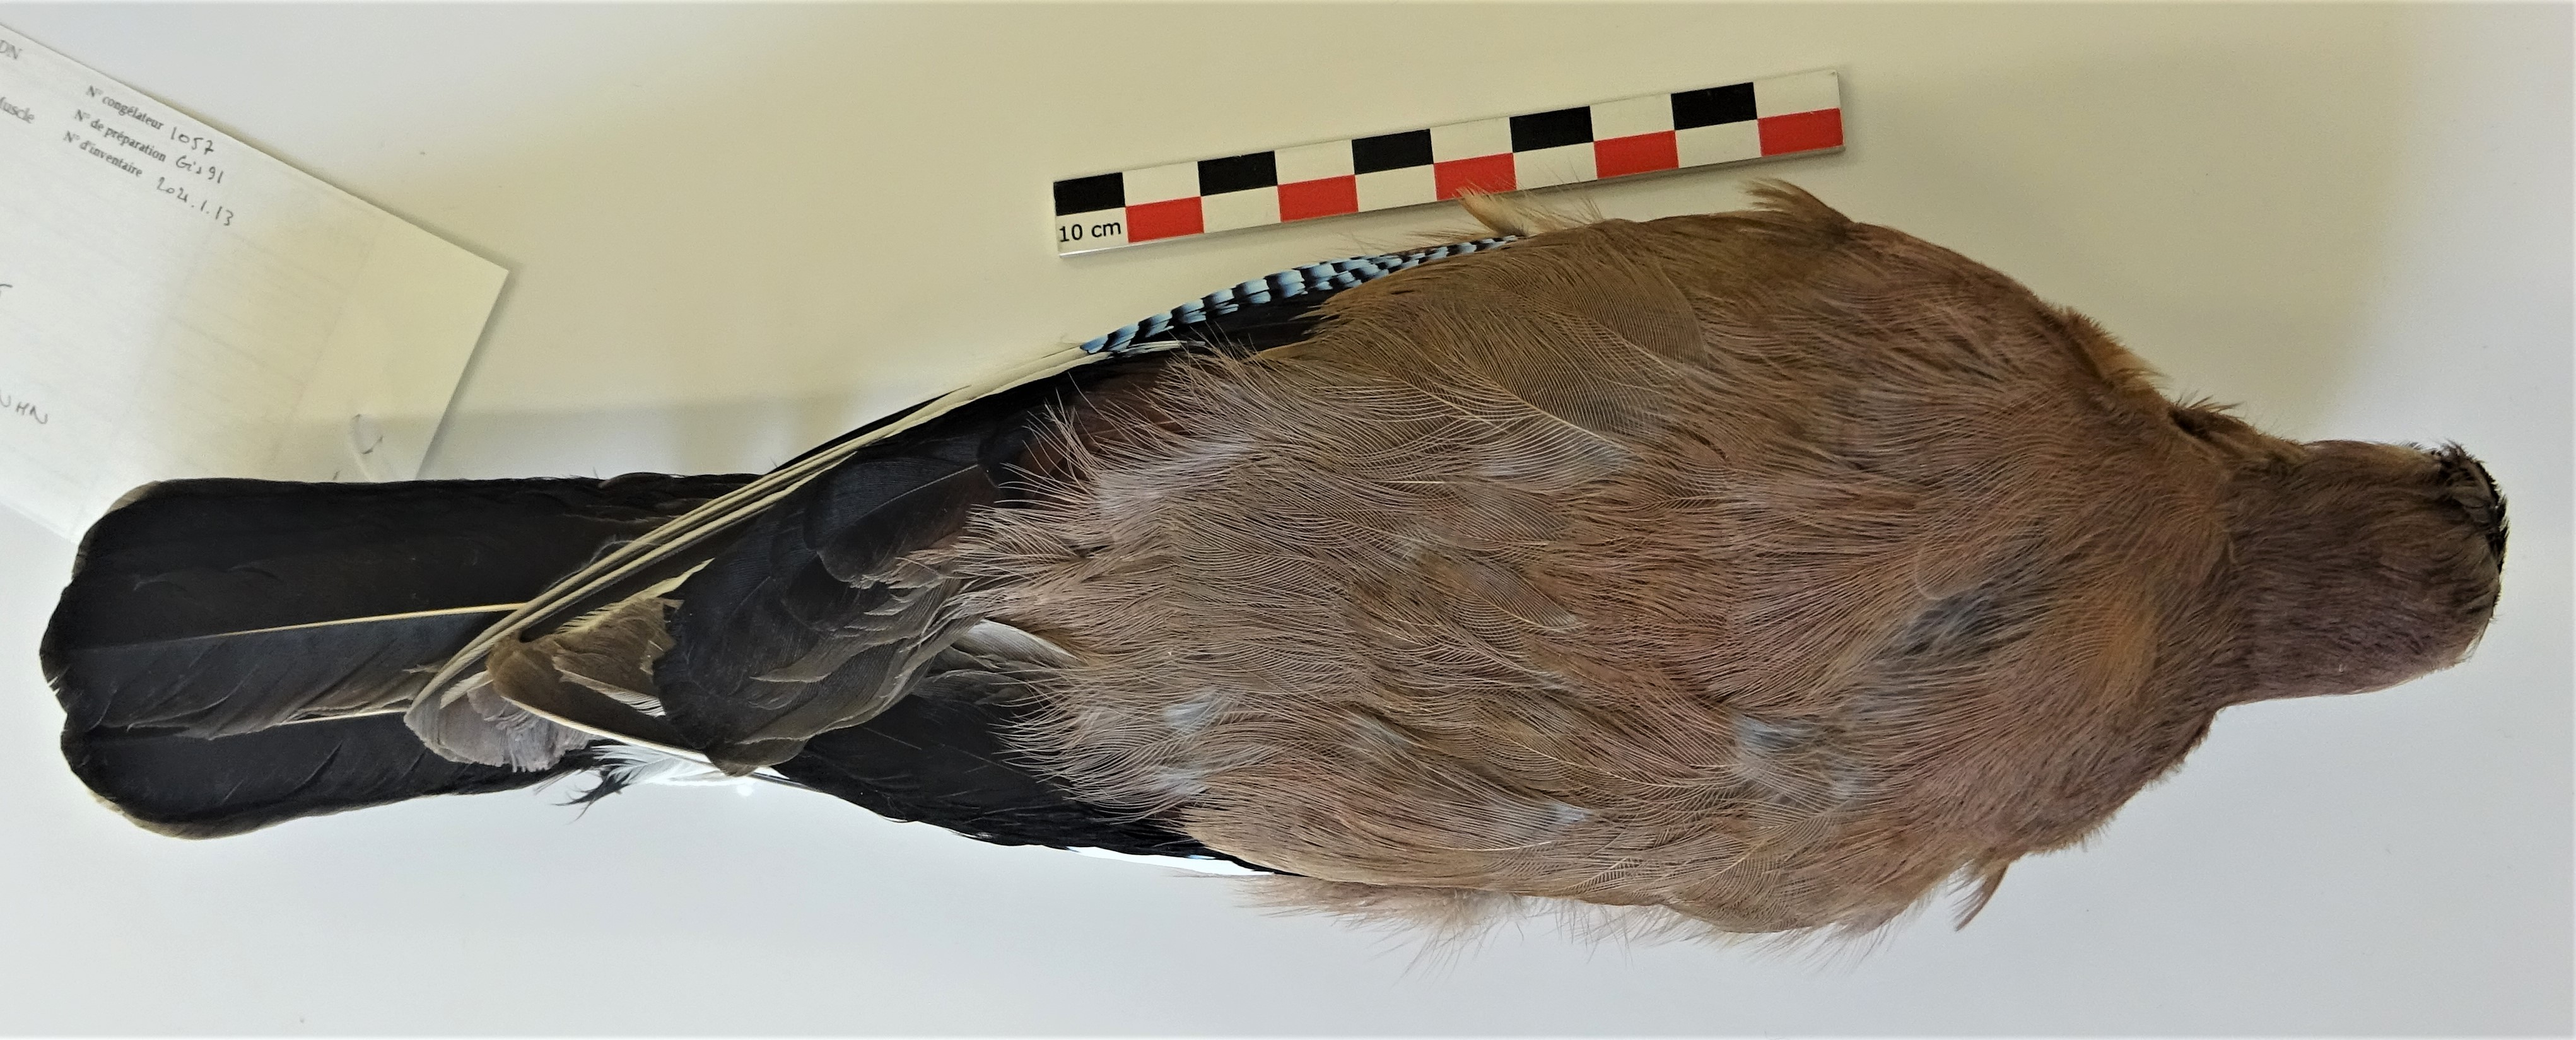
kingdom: Animalia
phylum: Chordata
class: Aves
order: Passeriformes
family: Corvidae
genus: Garrulus
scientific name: Garrulus glandarius
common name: Eurasian jay
